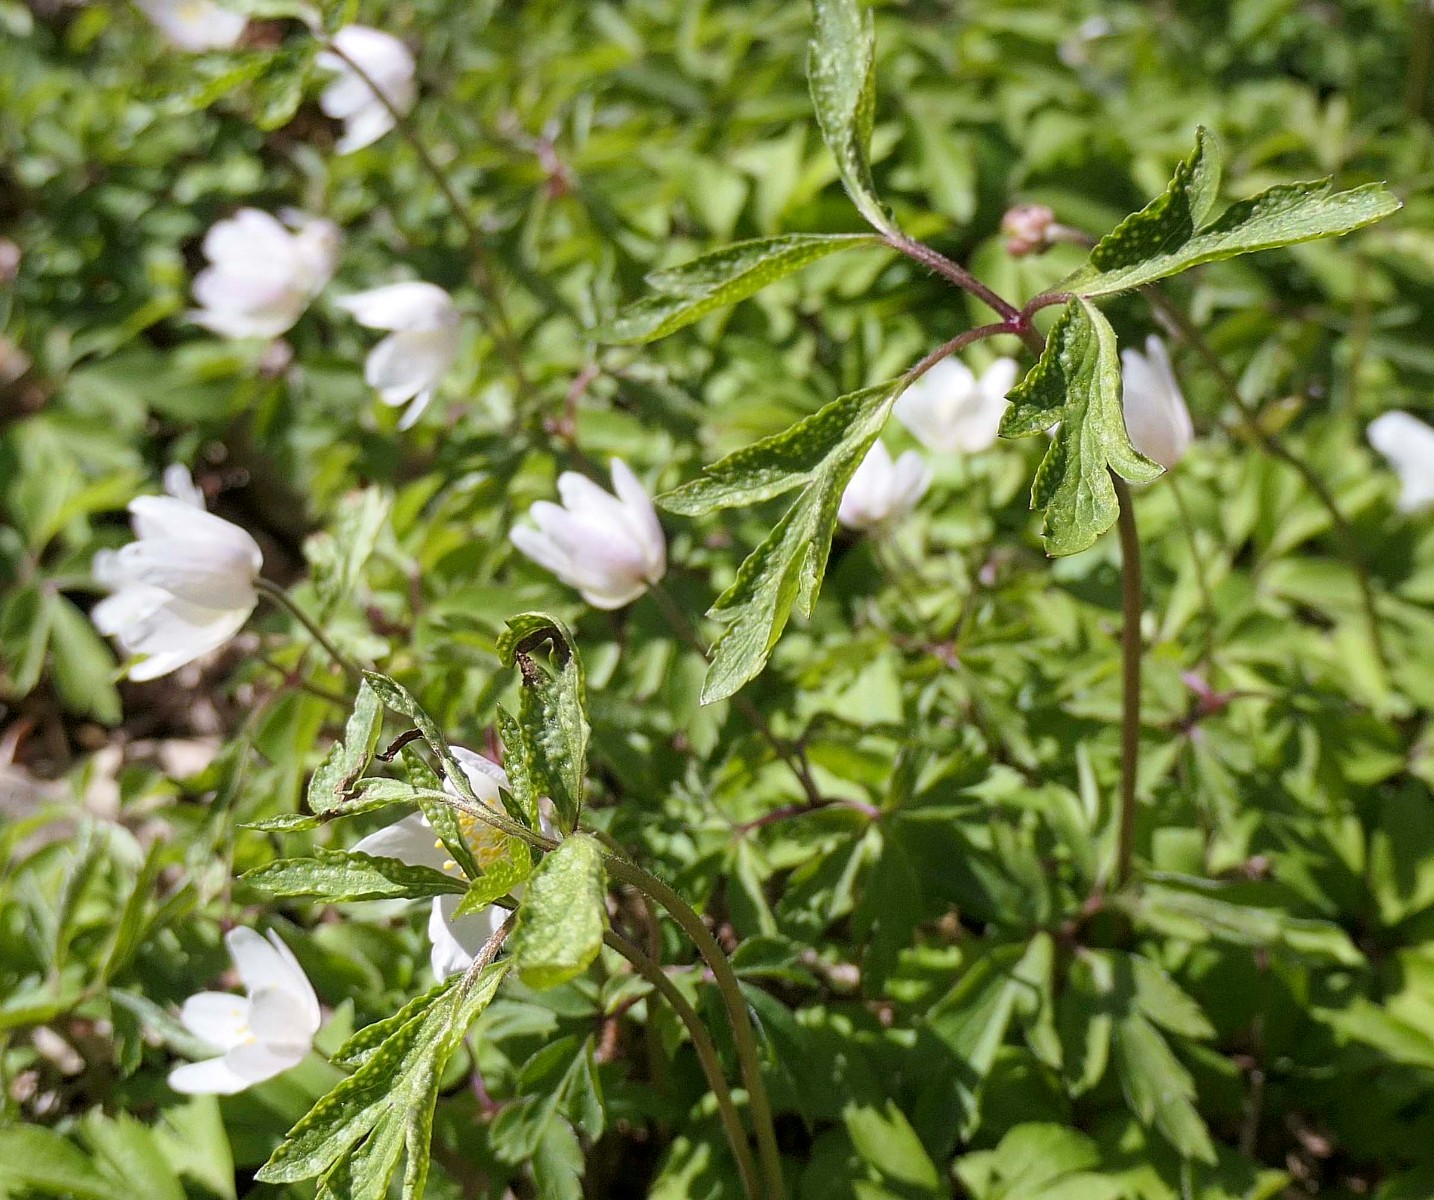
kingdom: Fungi
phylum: Basidiomycota
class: Pucciniomycetes
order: Pucciniales
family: Ochropsoraceae
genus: Ochropsora
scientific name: Ochropsora ariae
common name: anemone-okkerpletrust
